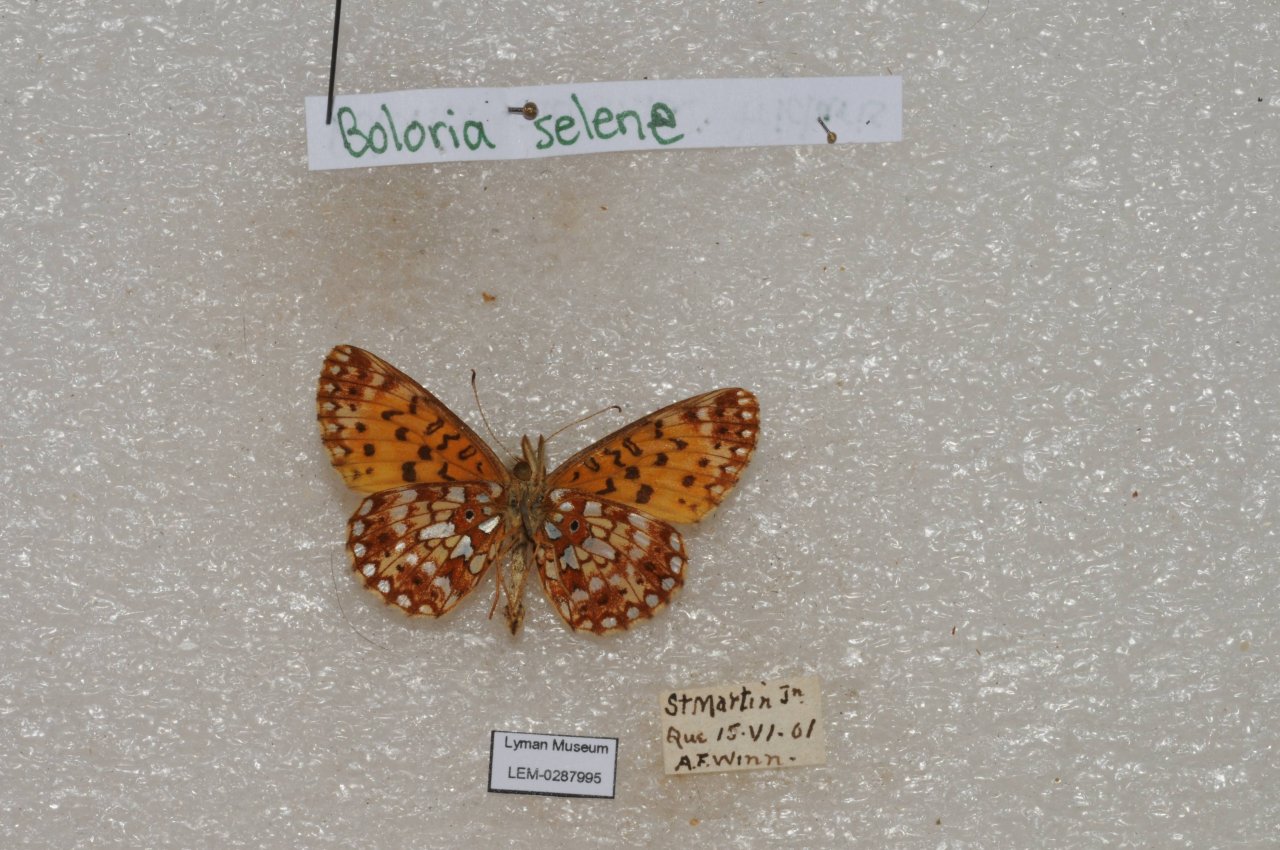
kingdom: Animalia
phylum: Arthropoda
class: Insecta
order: Lepidoptera
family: Nymphalidae
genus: Boloria
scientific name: Boloria selene
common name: Silver-bordered Fritillary
